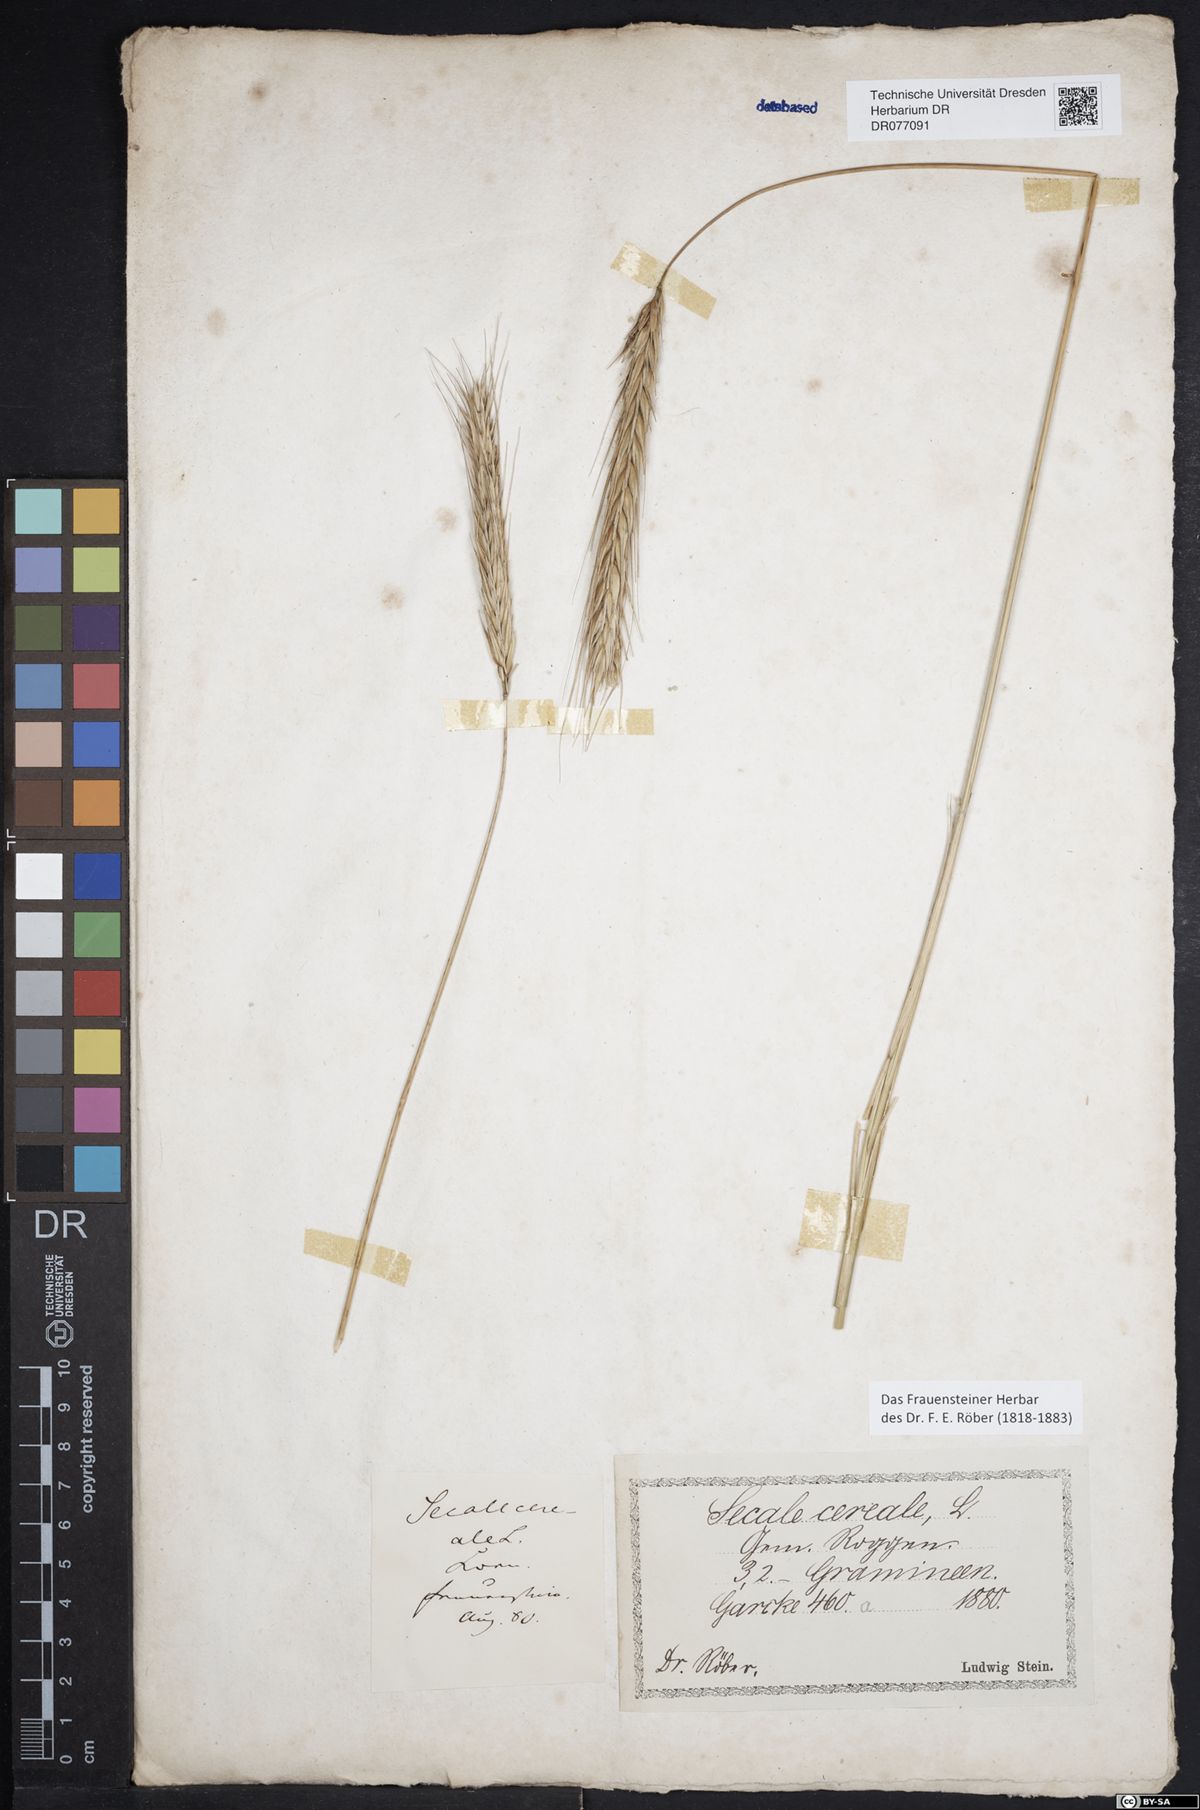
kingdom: Plantae
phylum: Tracheophyta
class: Liliopsida
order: Poales
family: Poaceae
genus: Secale
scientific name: Secale cereale
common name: Rye
